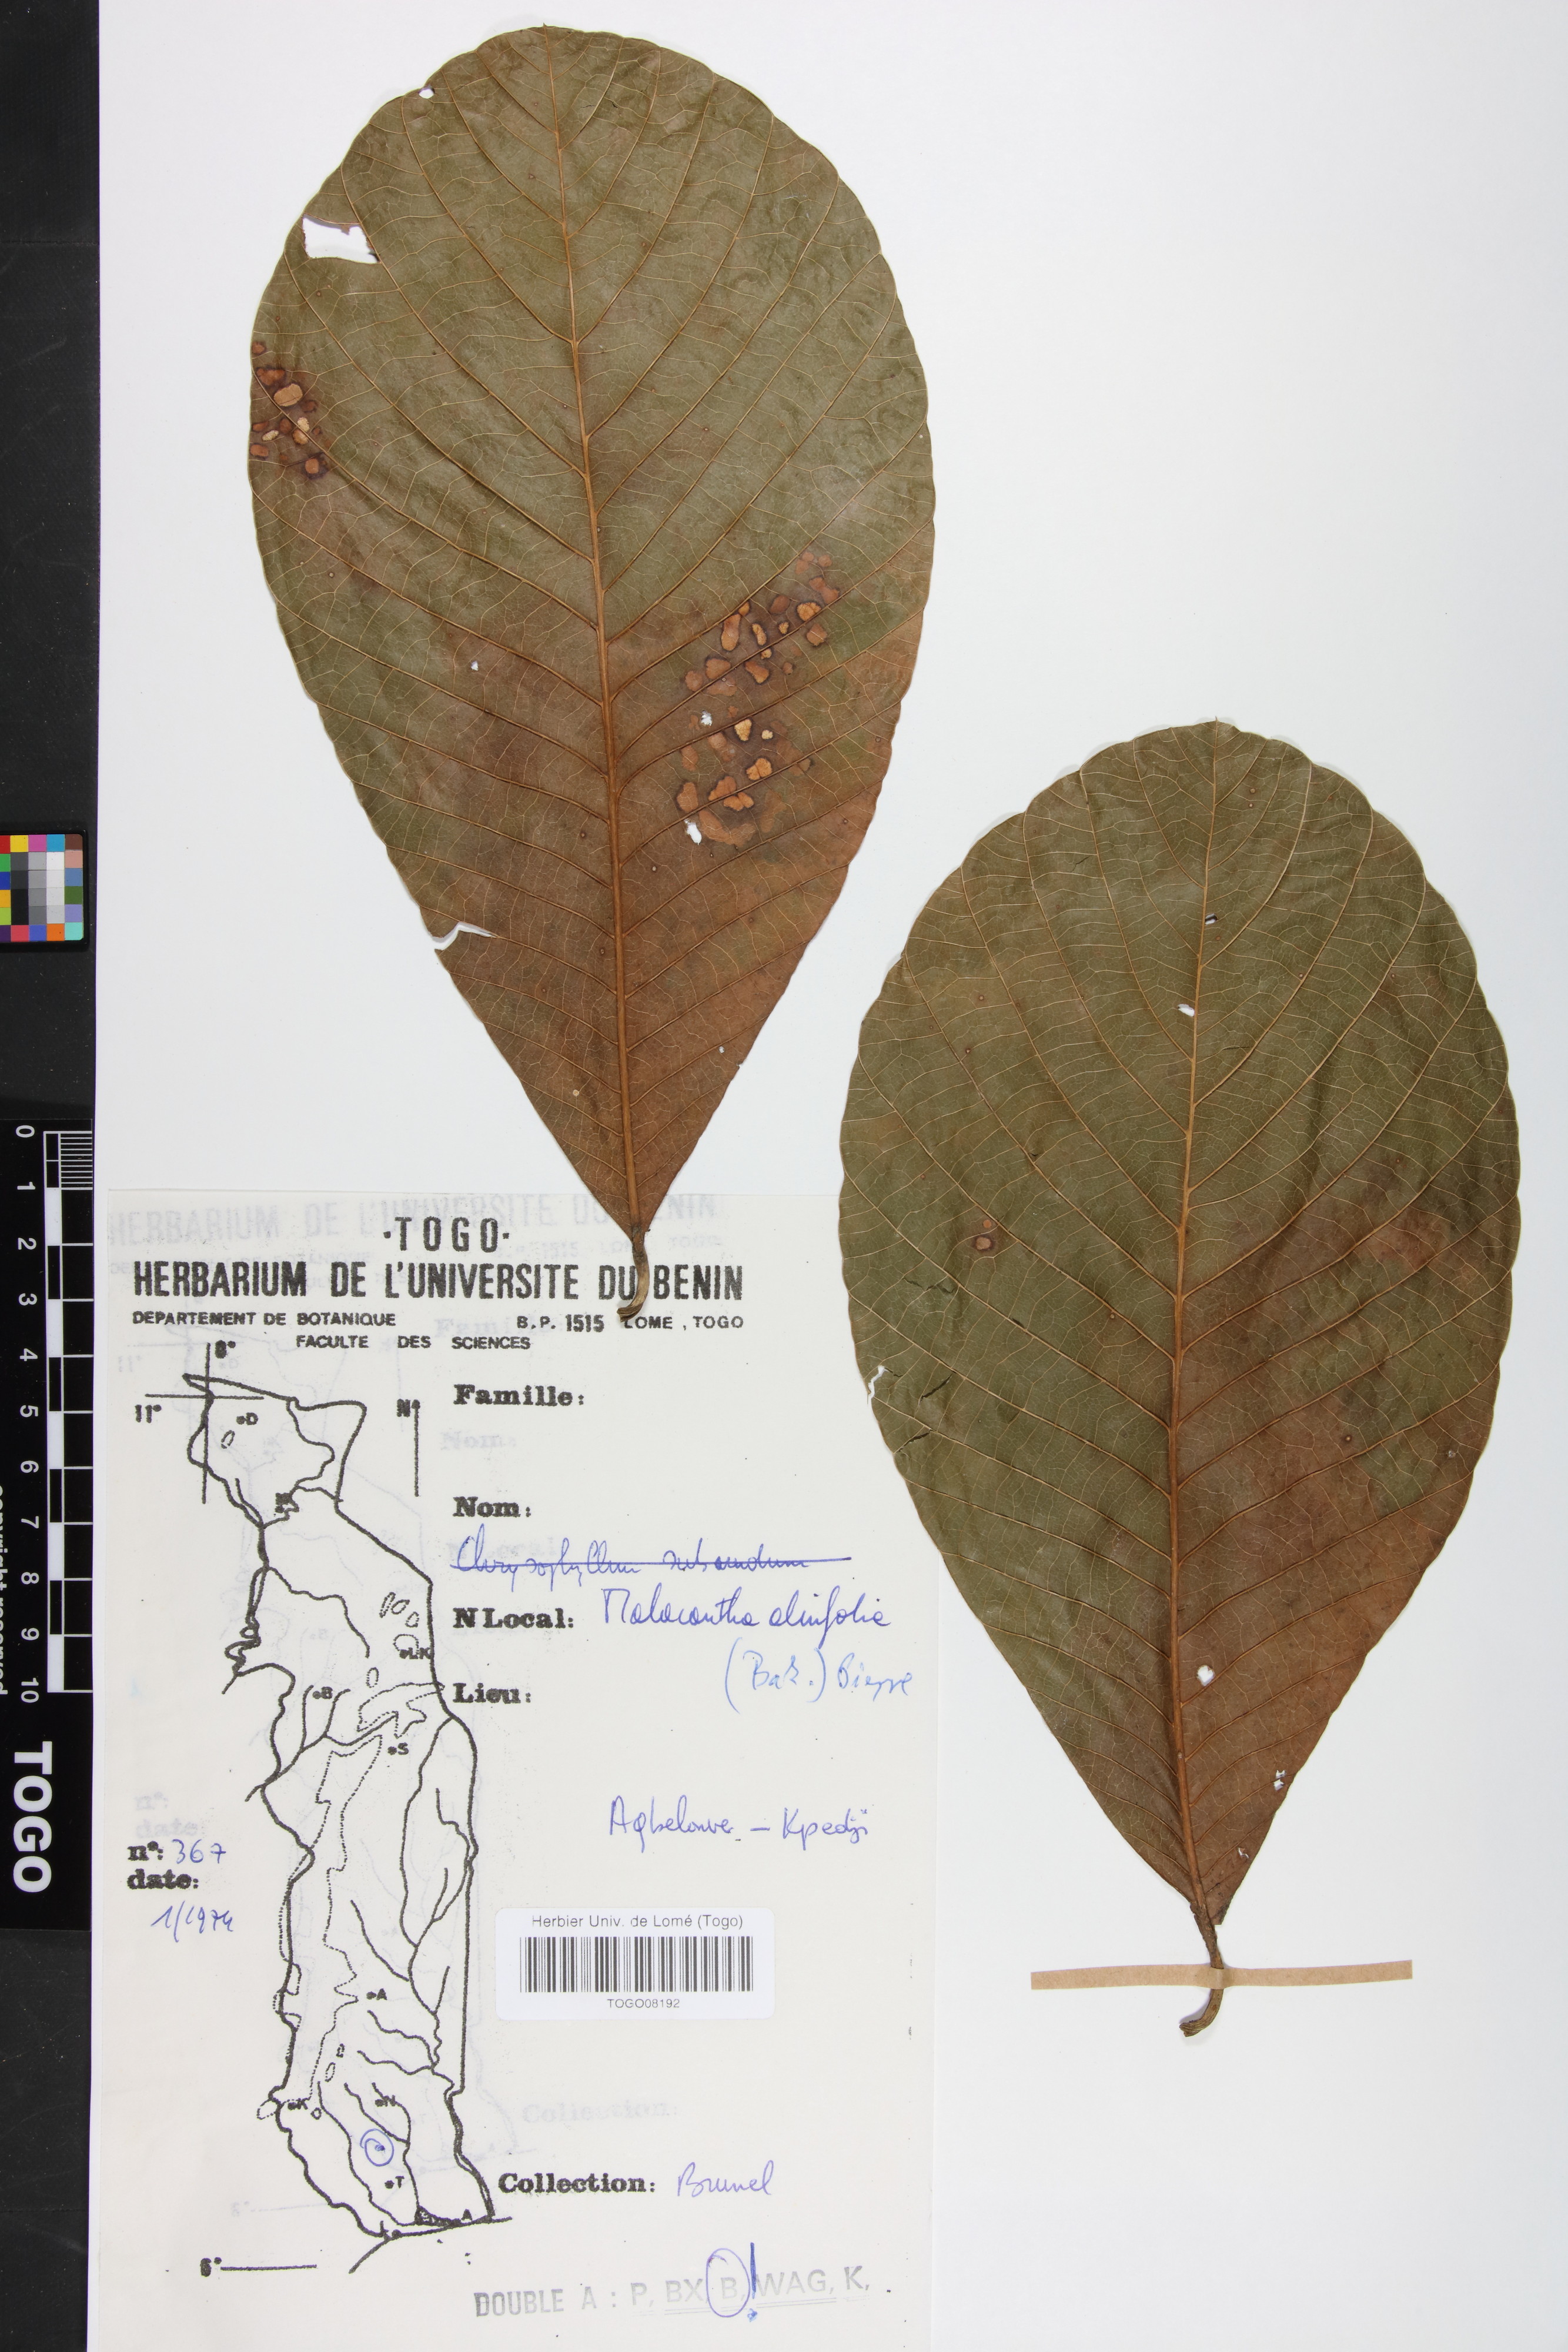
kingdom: Plantae
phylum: Tracheophyta
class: Magnoliopsida
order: Ericales
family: Sapotaceae
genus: Malacantha
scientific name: Malacantha alnifolia
